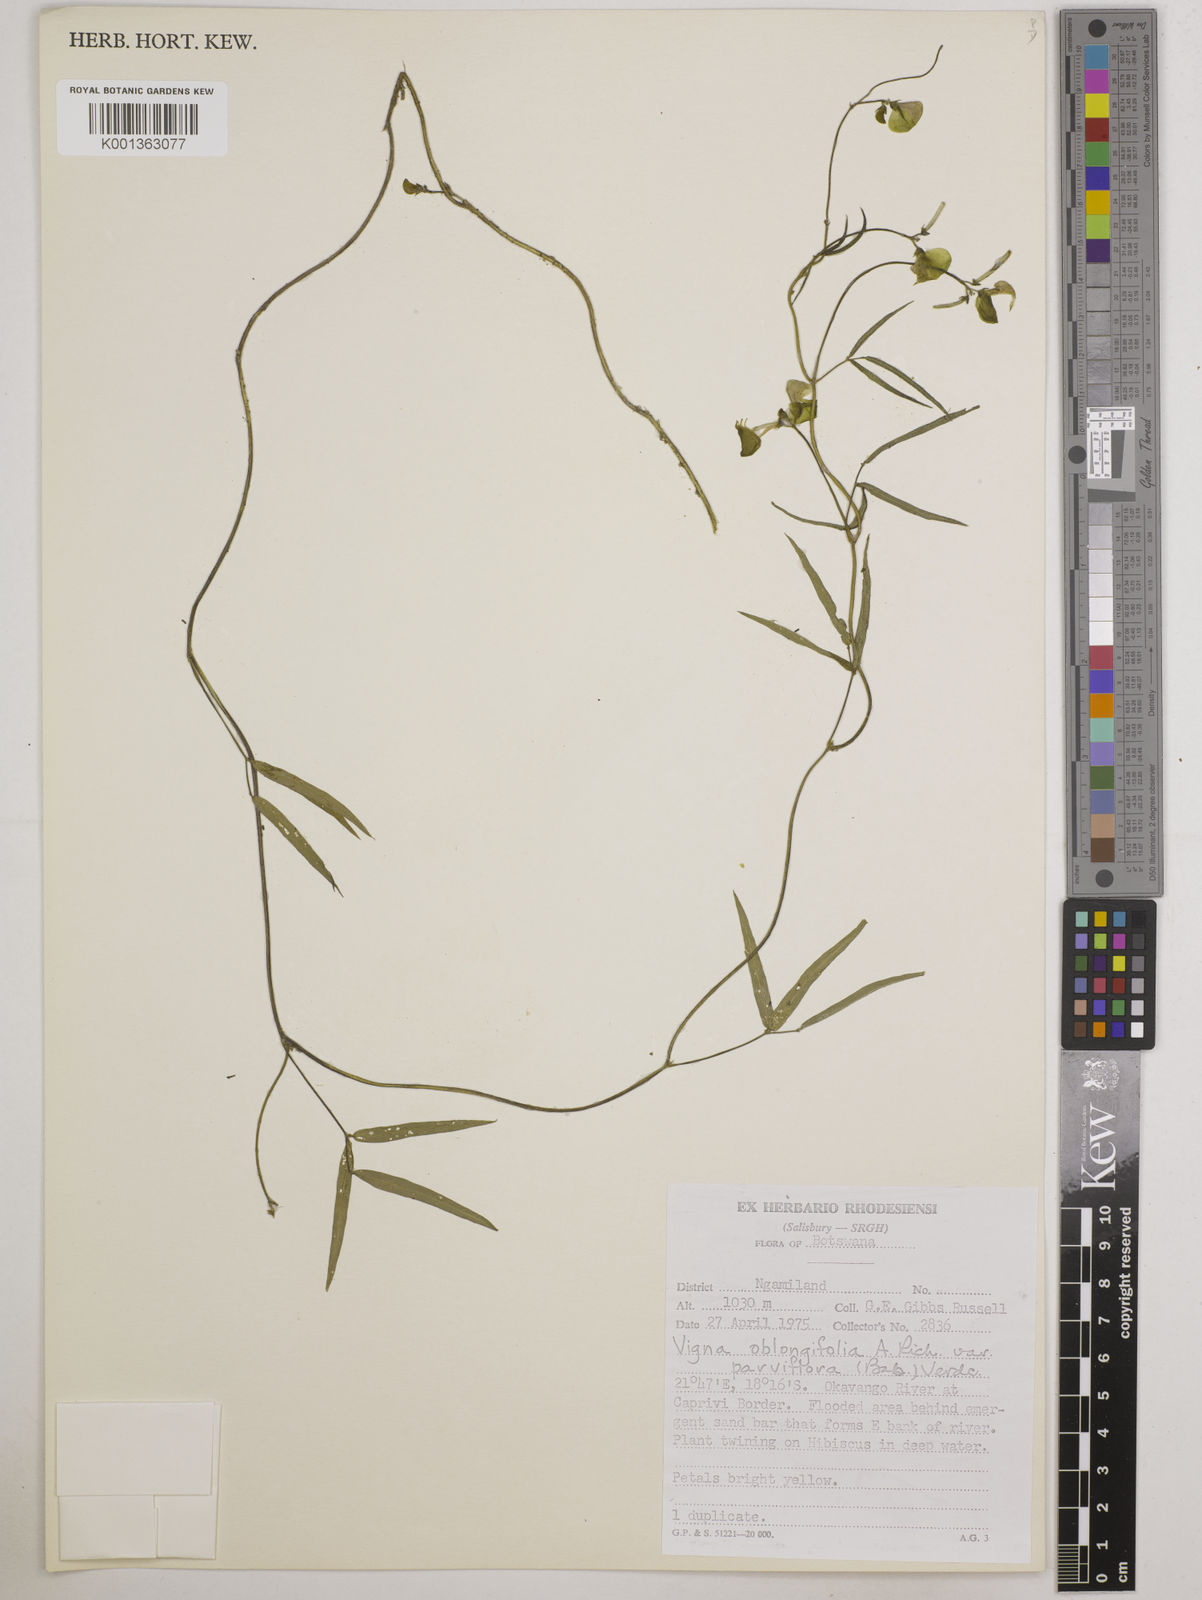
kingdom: Plantae
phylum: Tracheophyta
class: Magnoliopsida
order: Fabales
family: Fabaceae
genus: Vigna
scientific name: Vigna
